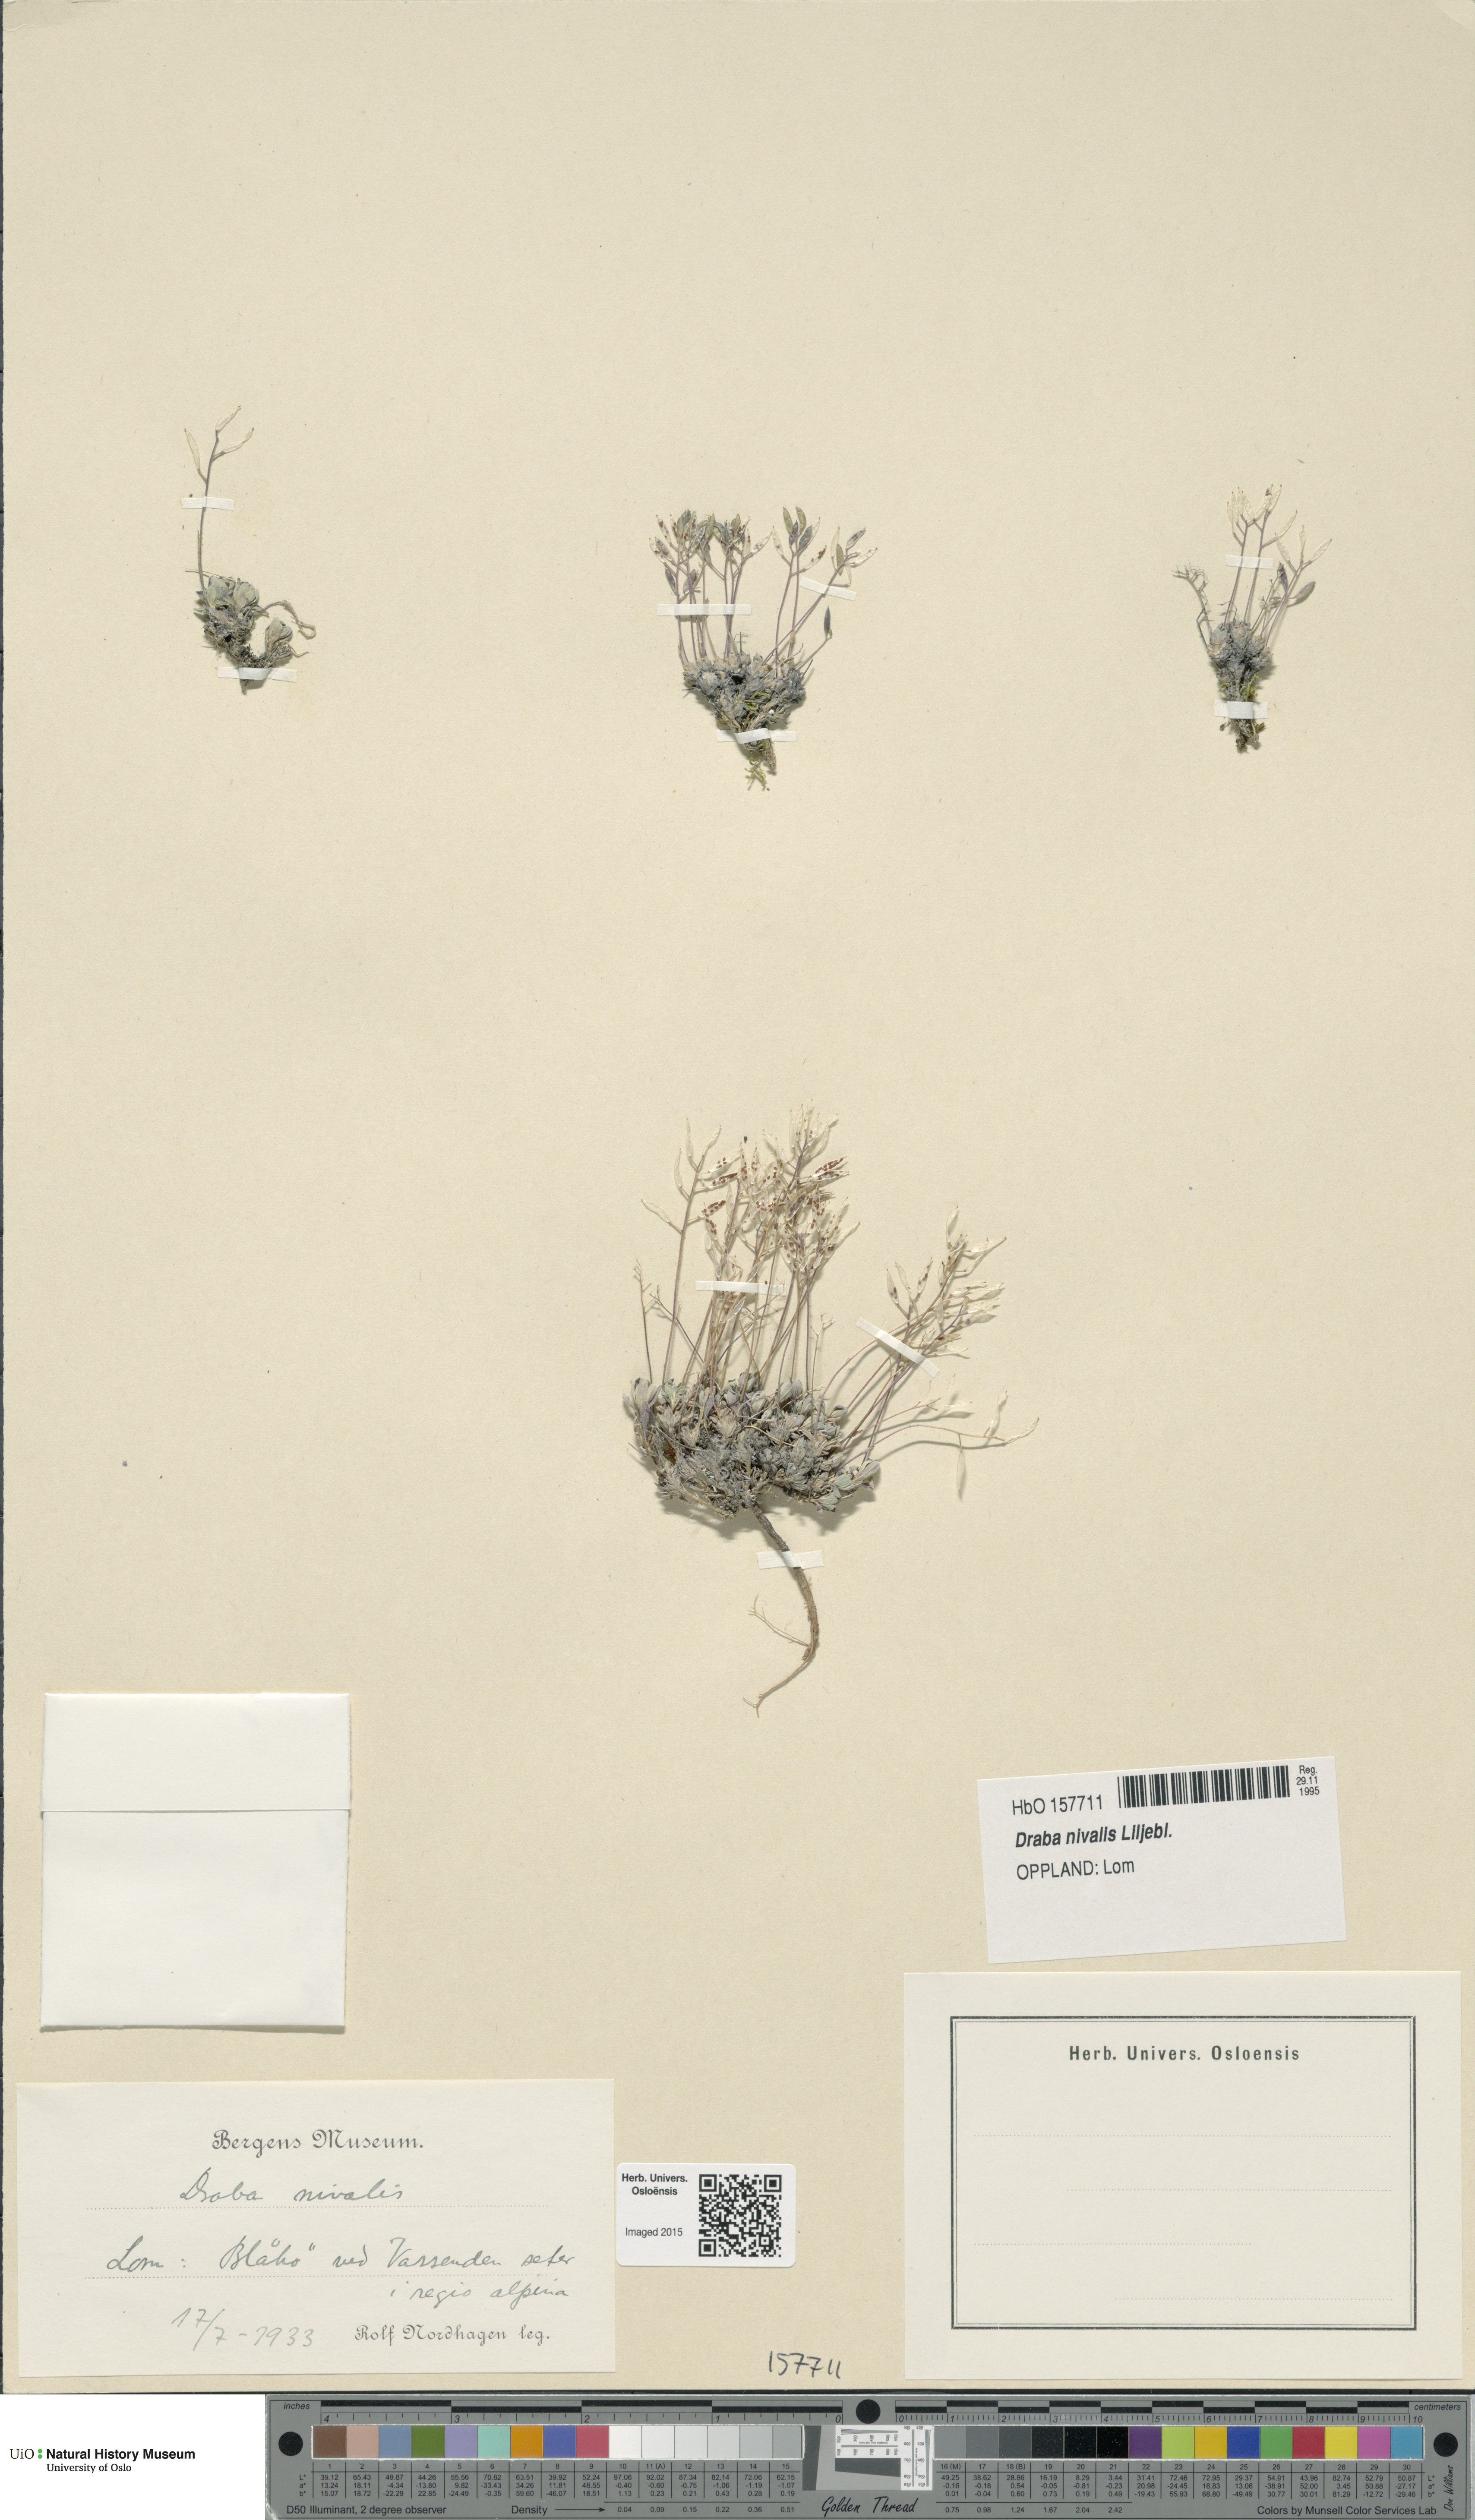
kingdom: Plantae
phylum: Tracheophyta
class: Magnoliopsida
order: Brassicales
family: Brassicaceae
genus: Draba
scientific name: Draba nivalis
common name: Snow draba
